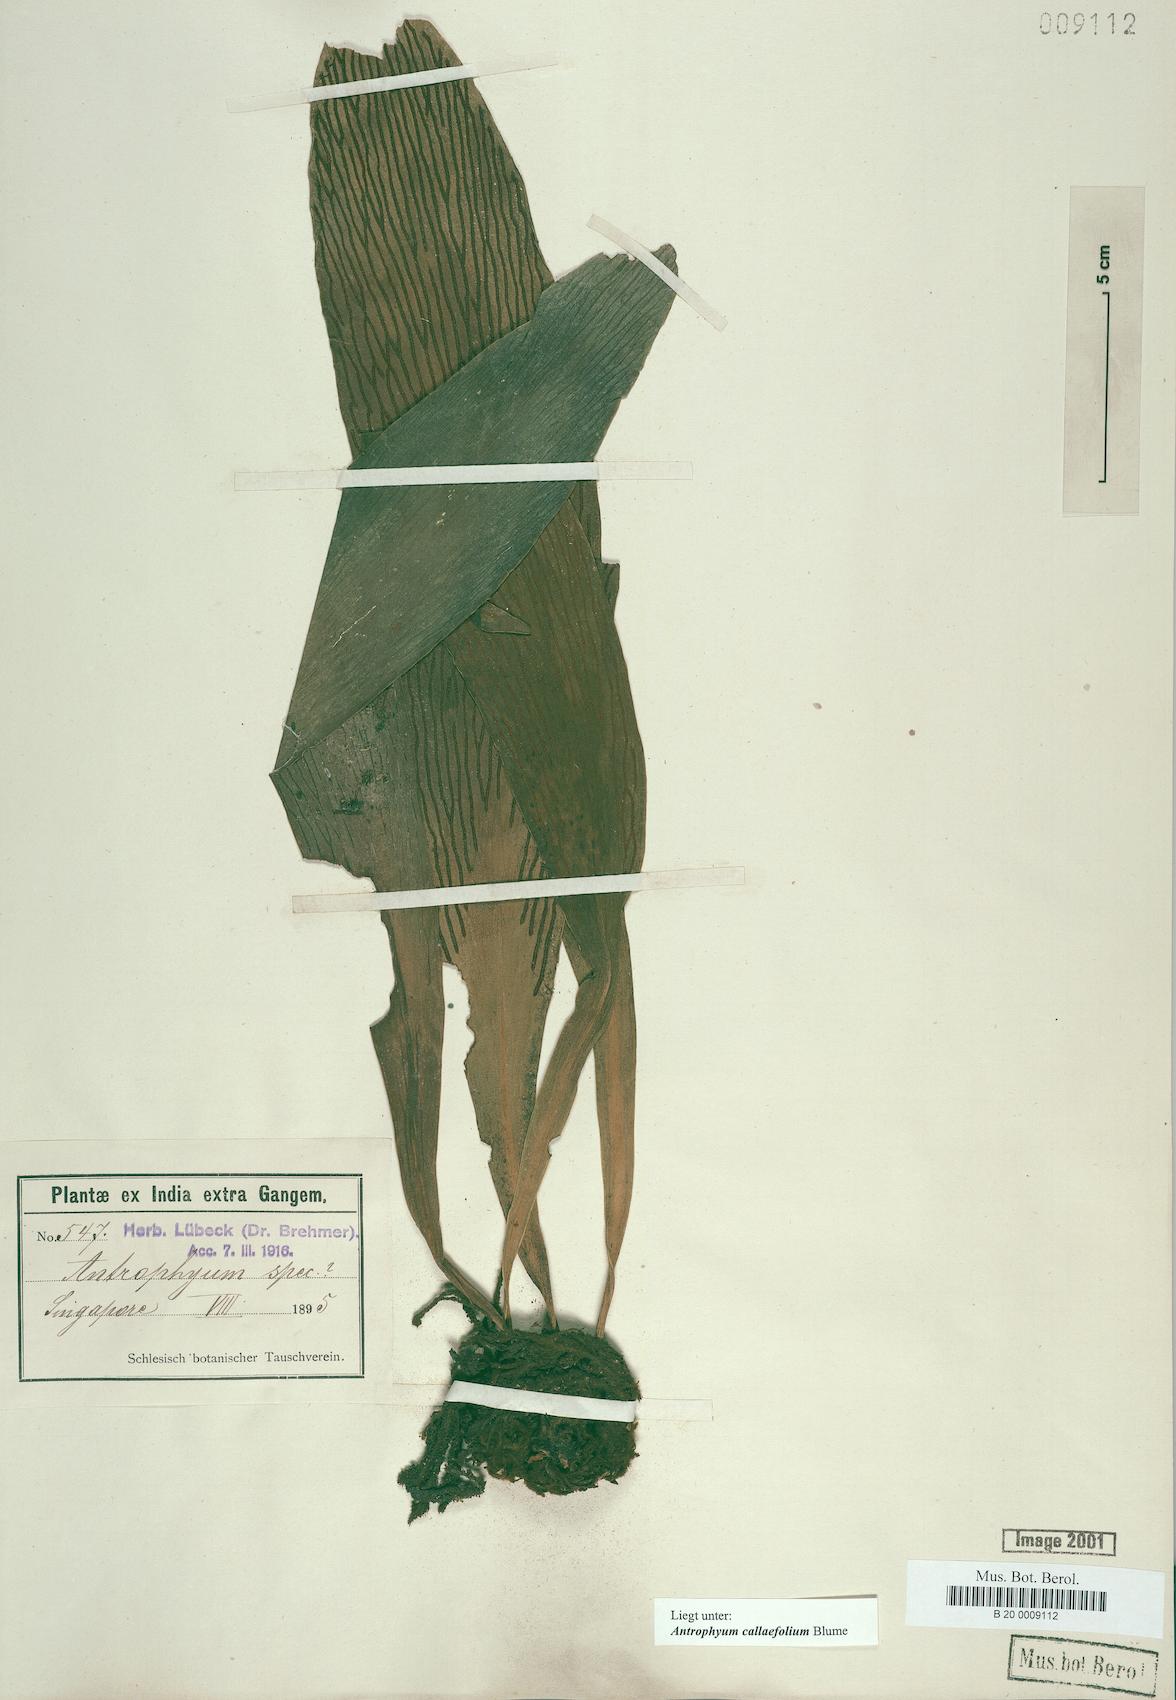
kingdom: Plantae
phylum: Tracheophyta
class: Polypodiopsida
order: Polypodiales
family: Pteridaceae
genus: Antrophyum
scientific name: Antrophyum callifolium
